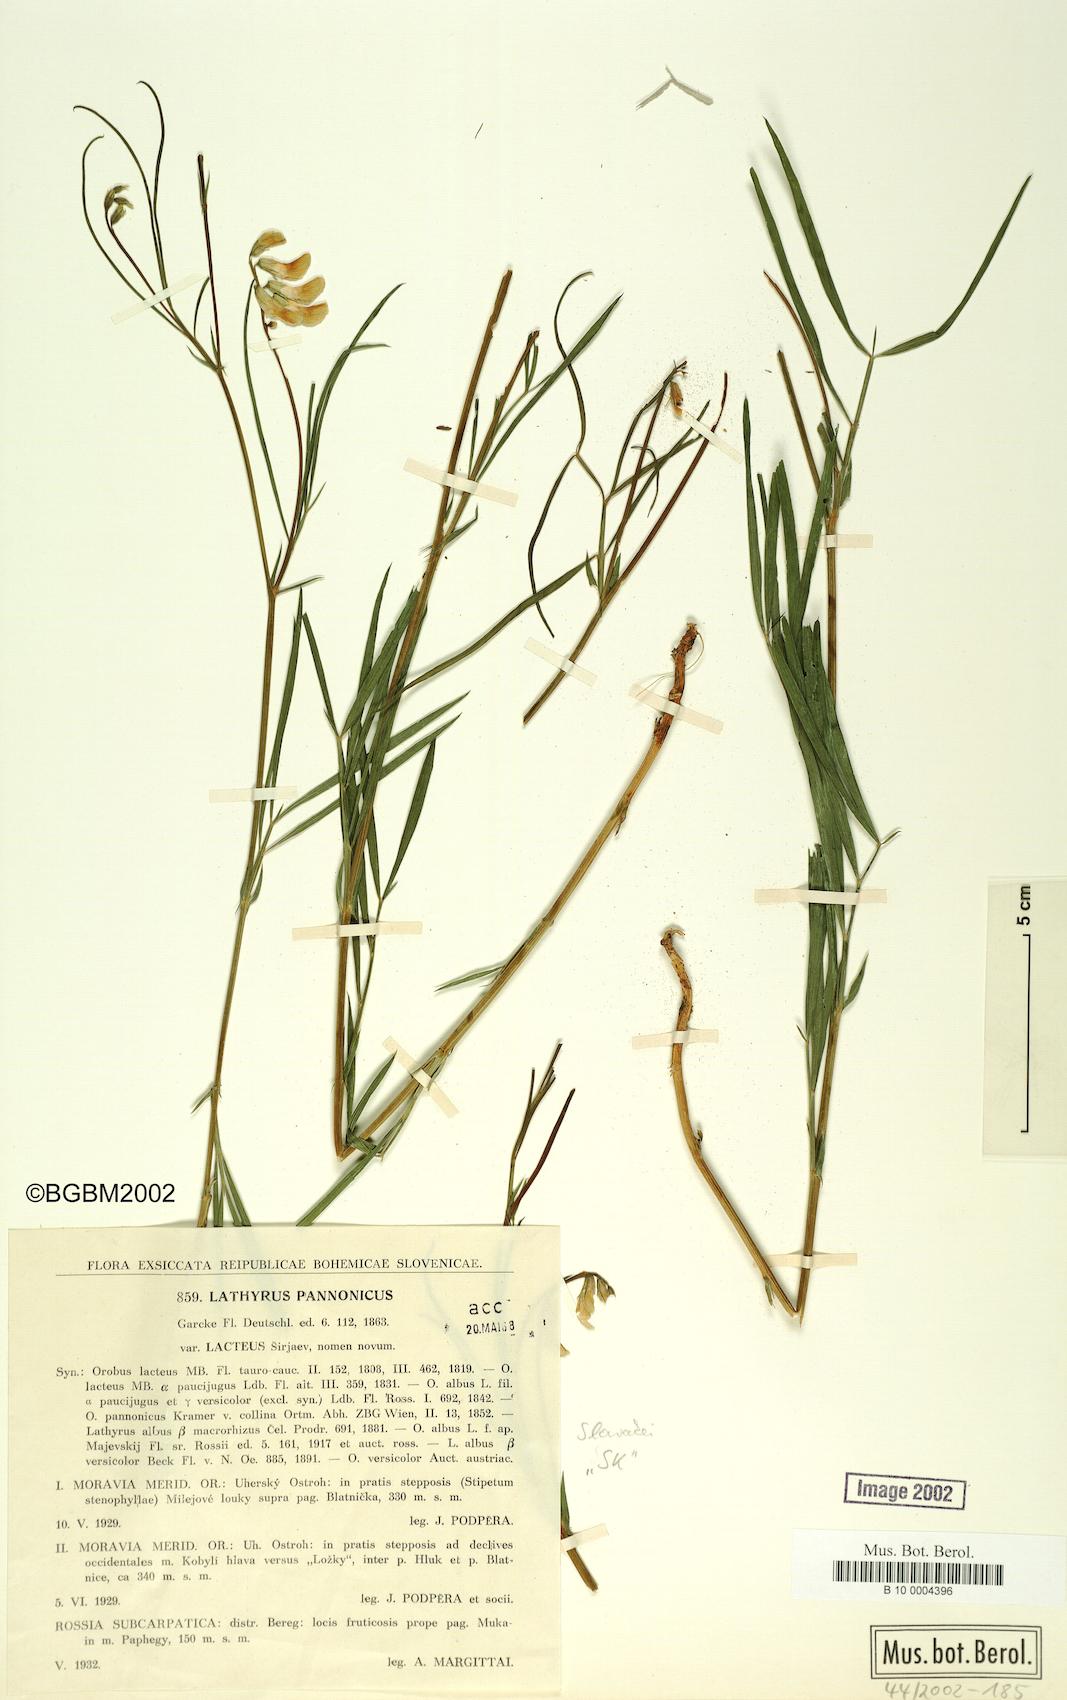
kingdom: Plantae
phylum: Tracheophyta
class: Magnoliopsida
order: Fabales
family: Fabaceae
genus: Lathyrus
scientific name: Lathyrus pannonicus
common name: Pea
